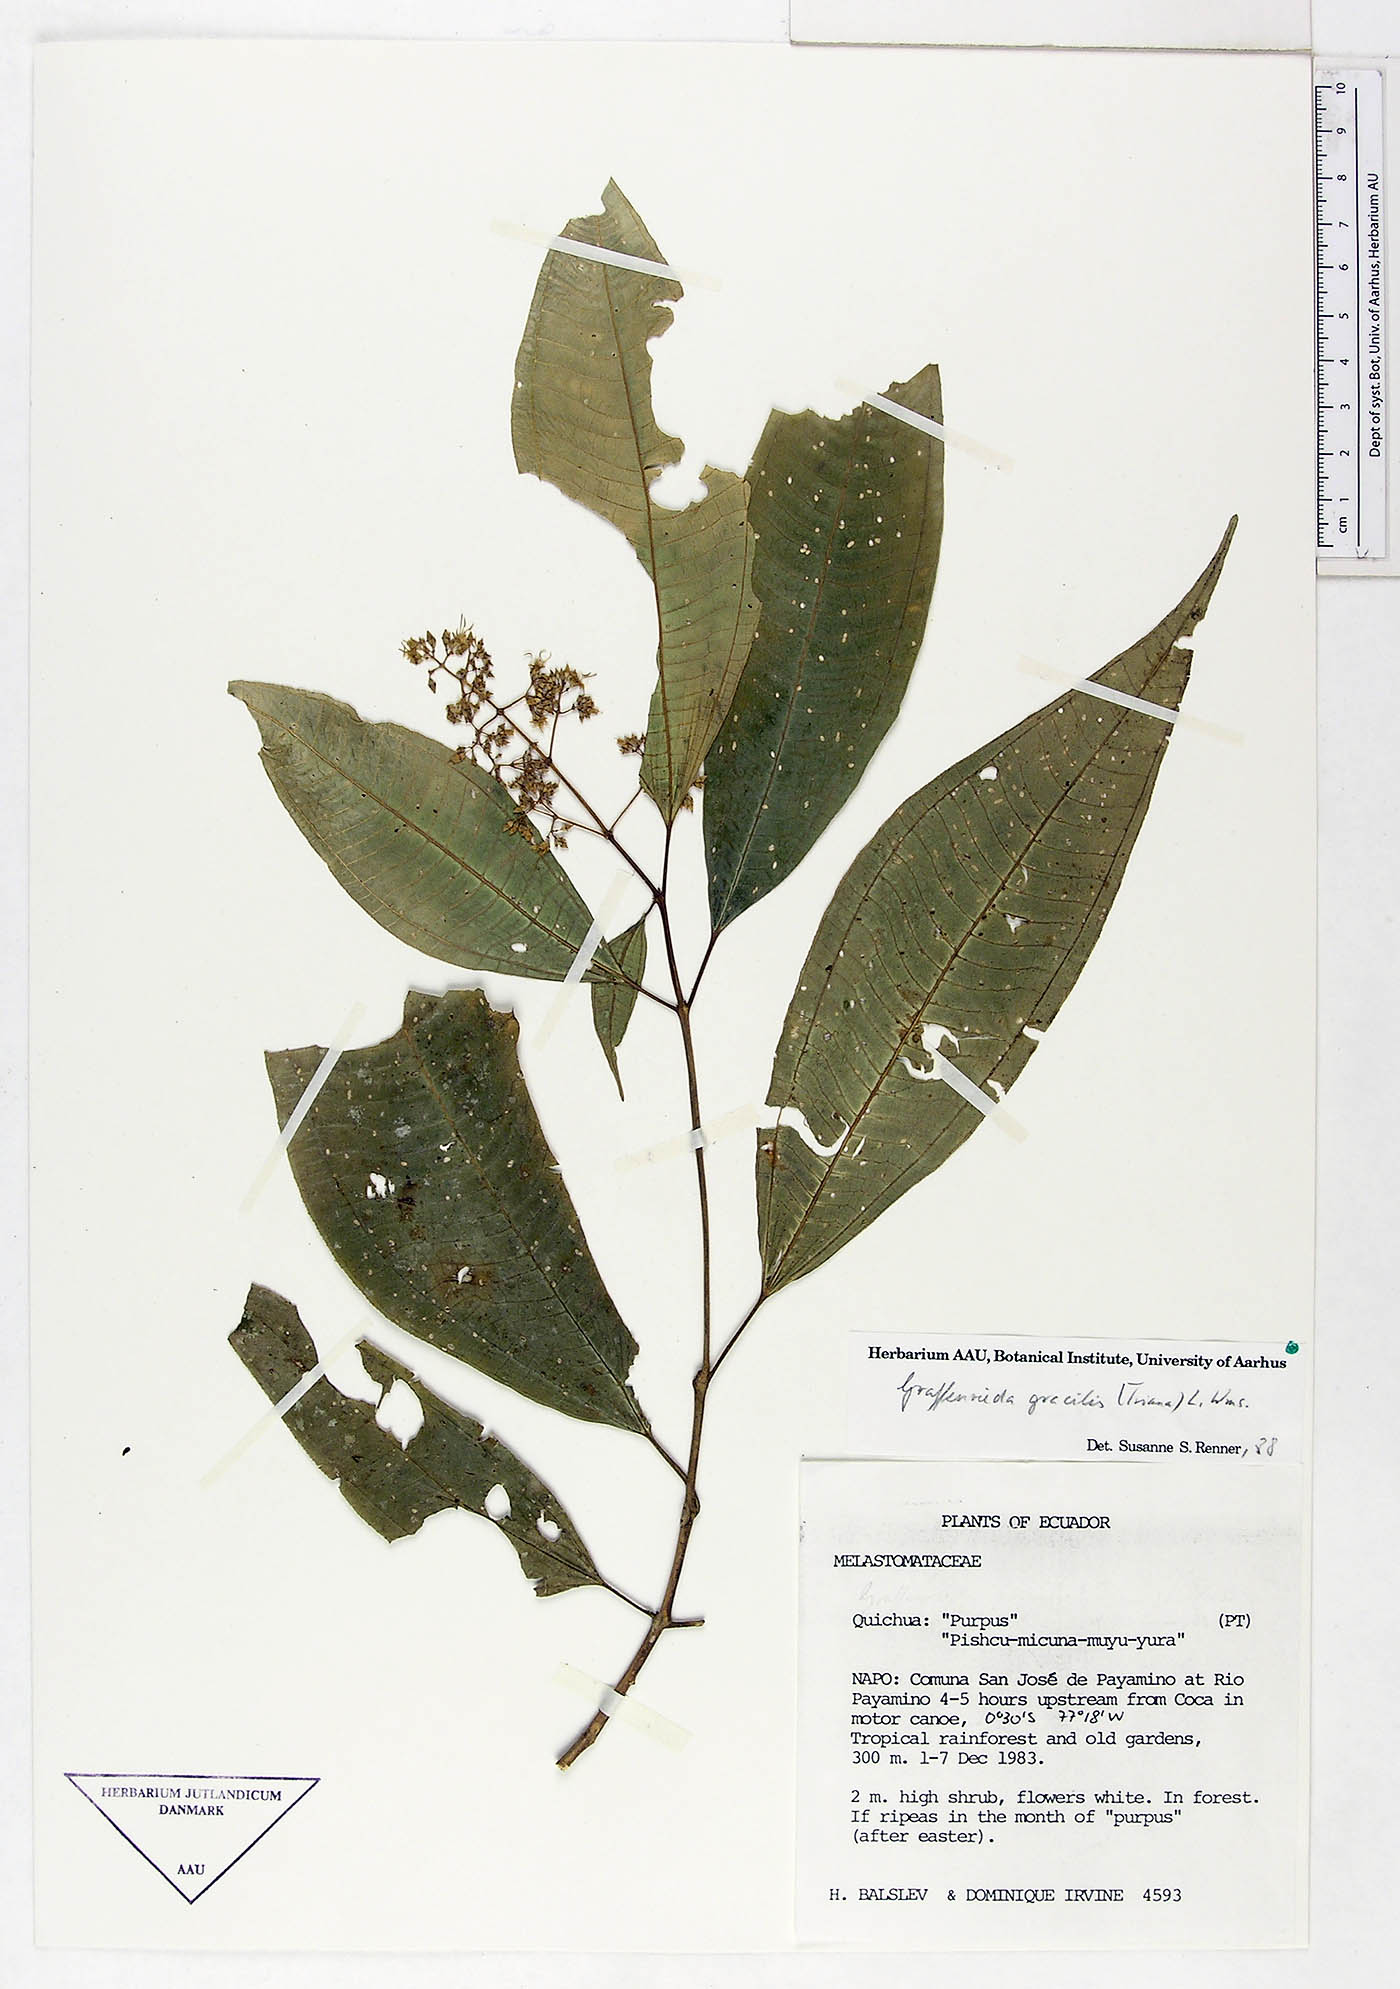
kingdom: Plantae
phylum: Tracheophyta
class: Magnoliopsida
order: Myrtales
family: Melastomataceae
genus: Graffenrieda
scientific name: Graffenrieda gracilis
